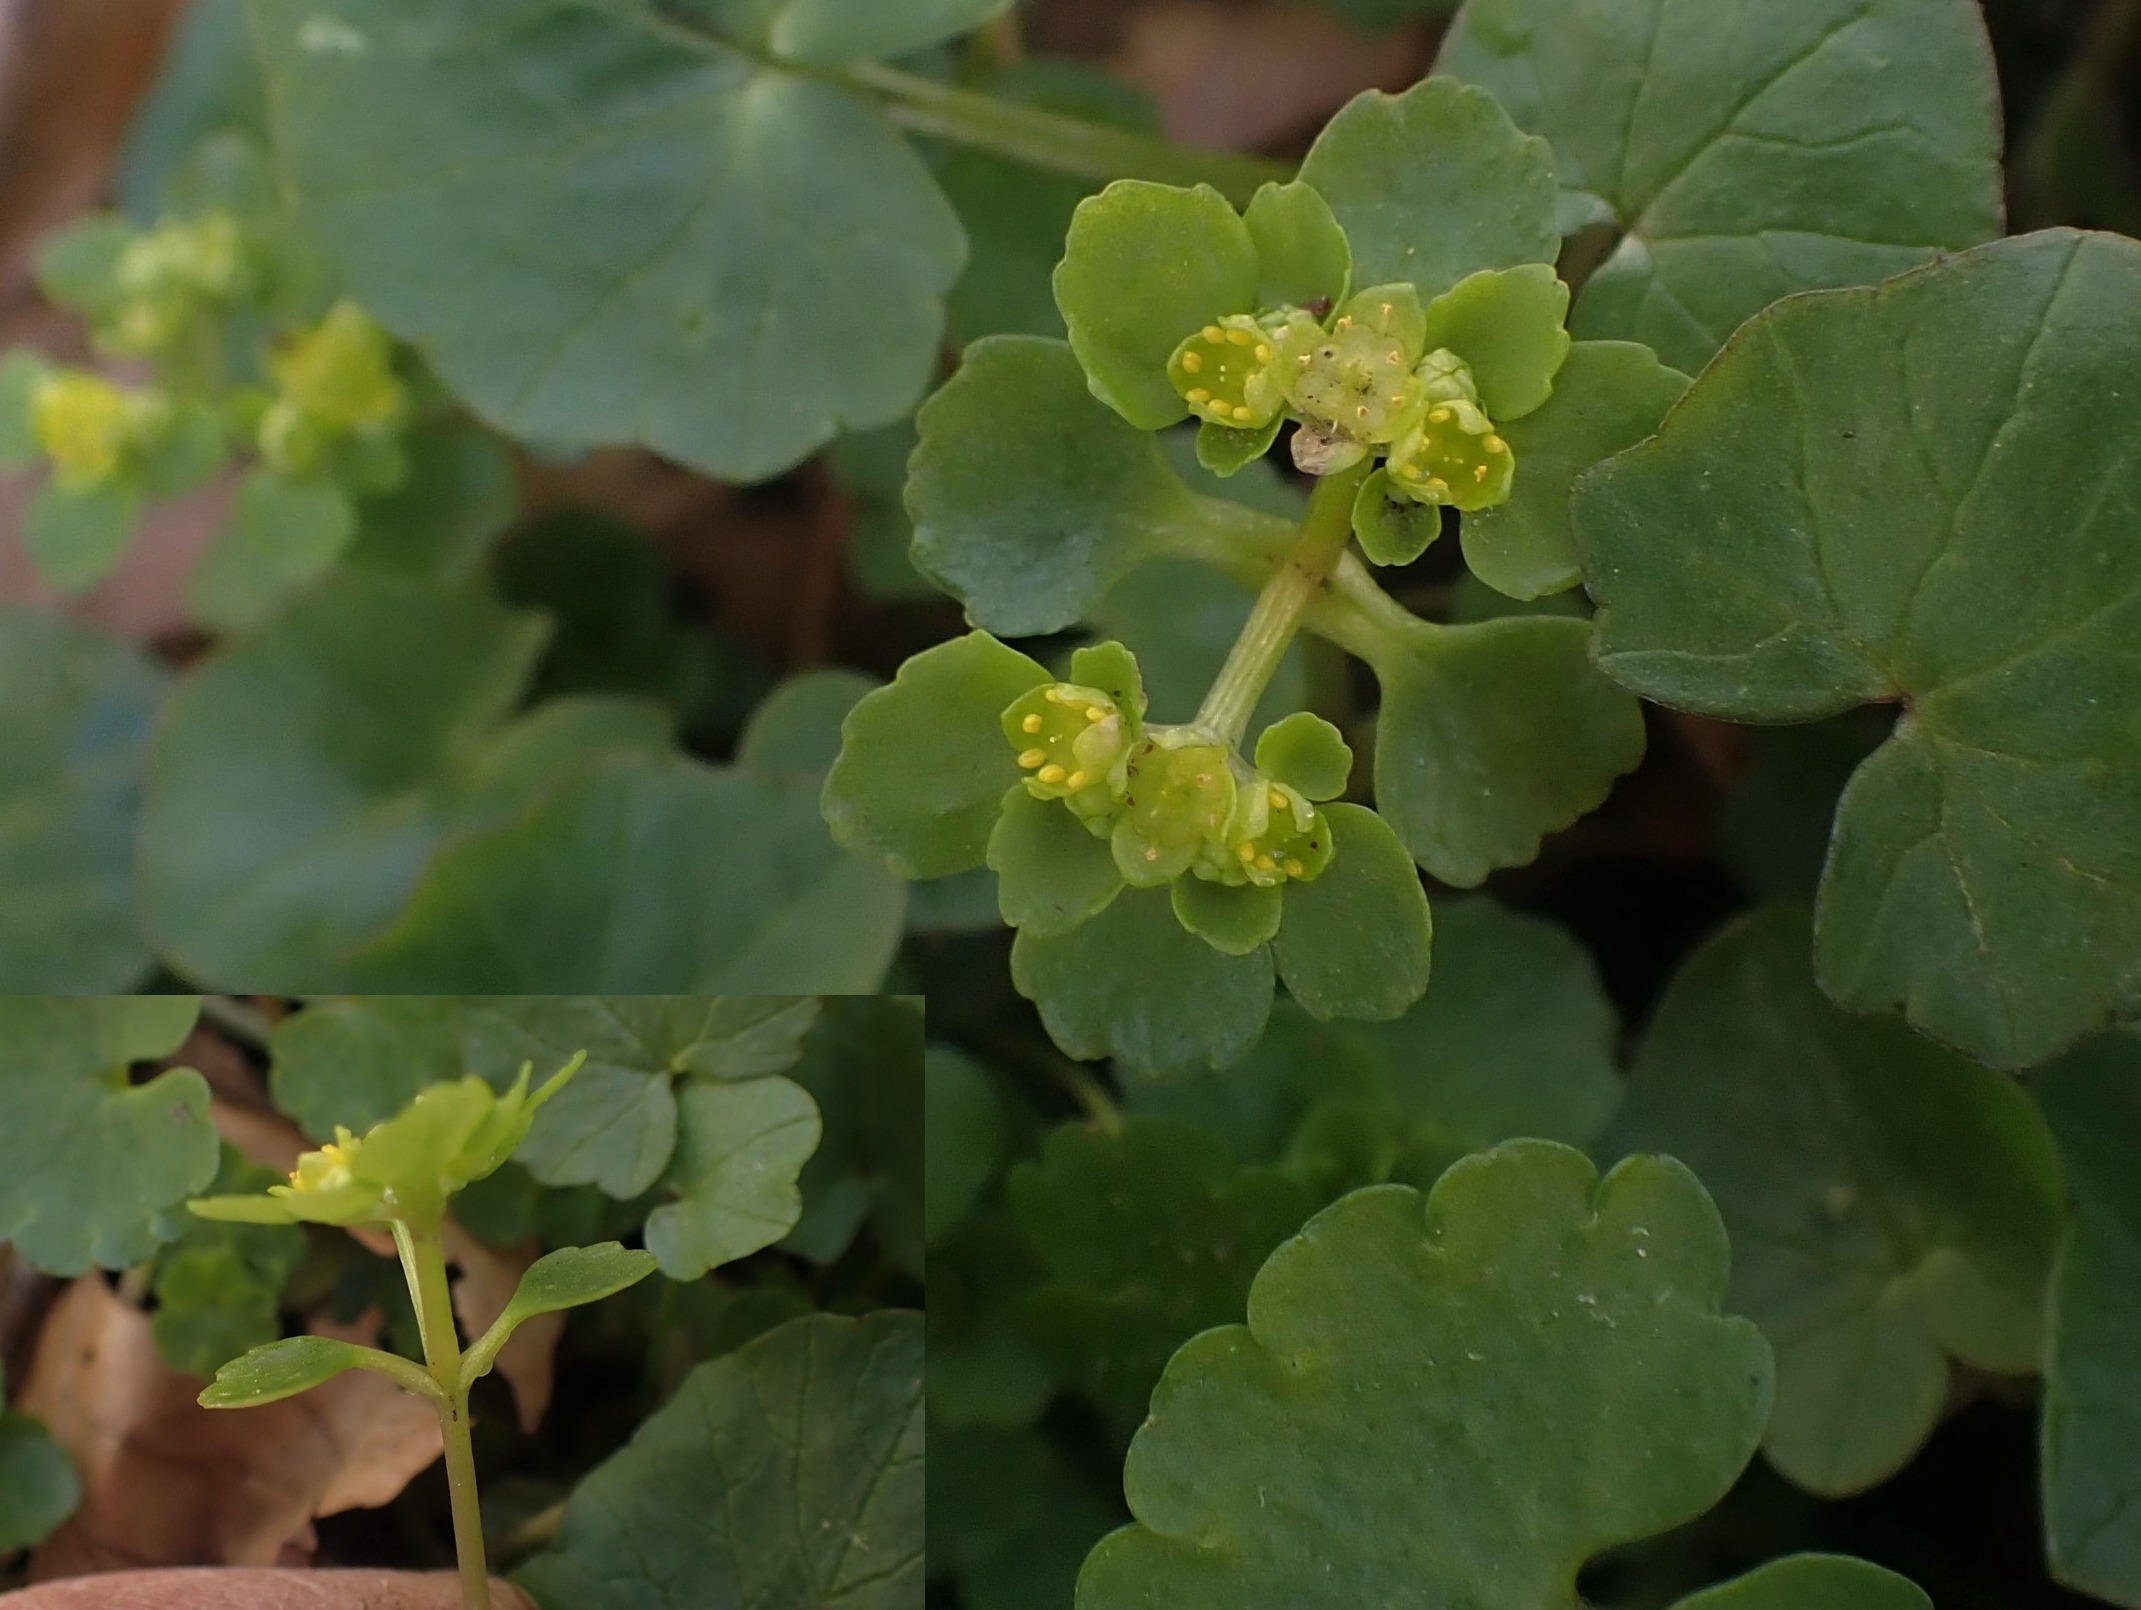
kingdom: Plantae
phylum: Tracheophyta
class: Magnoliopsida
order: Saxifragales
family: Saxifragaceae
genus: Chrysosplenium
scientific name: Chrysosplenium oppositifolium
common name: Småbladet milturt
